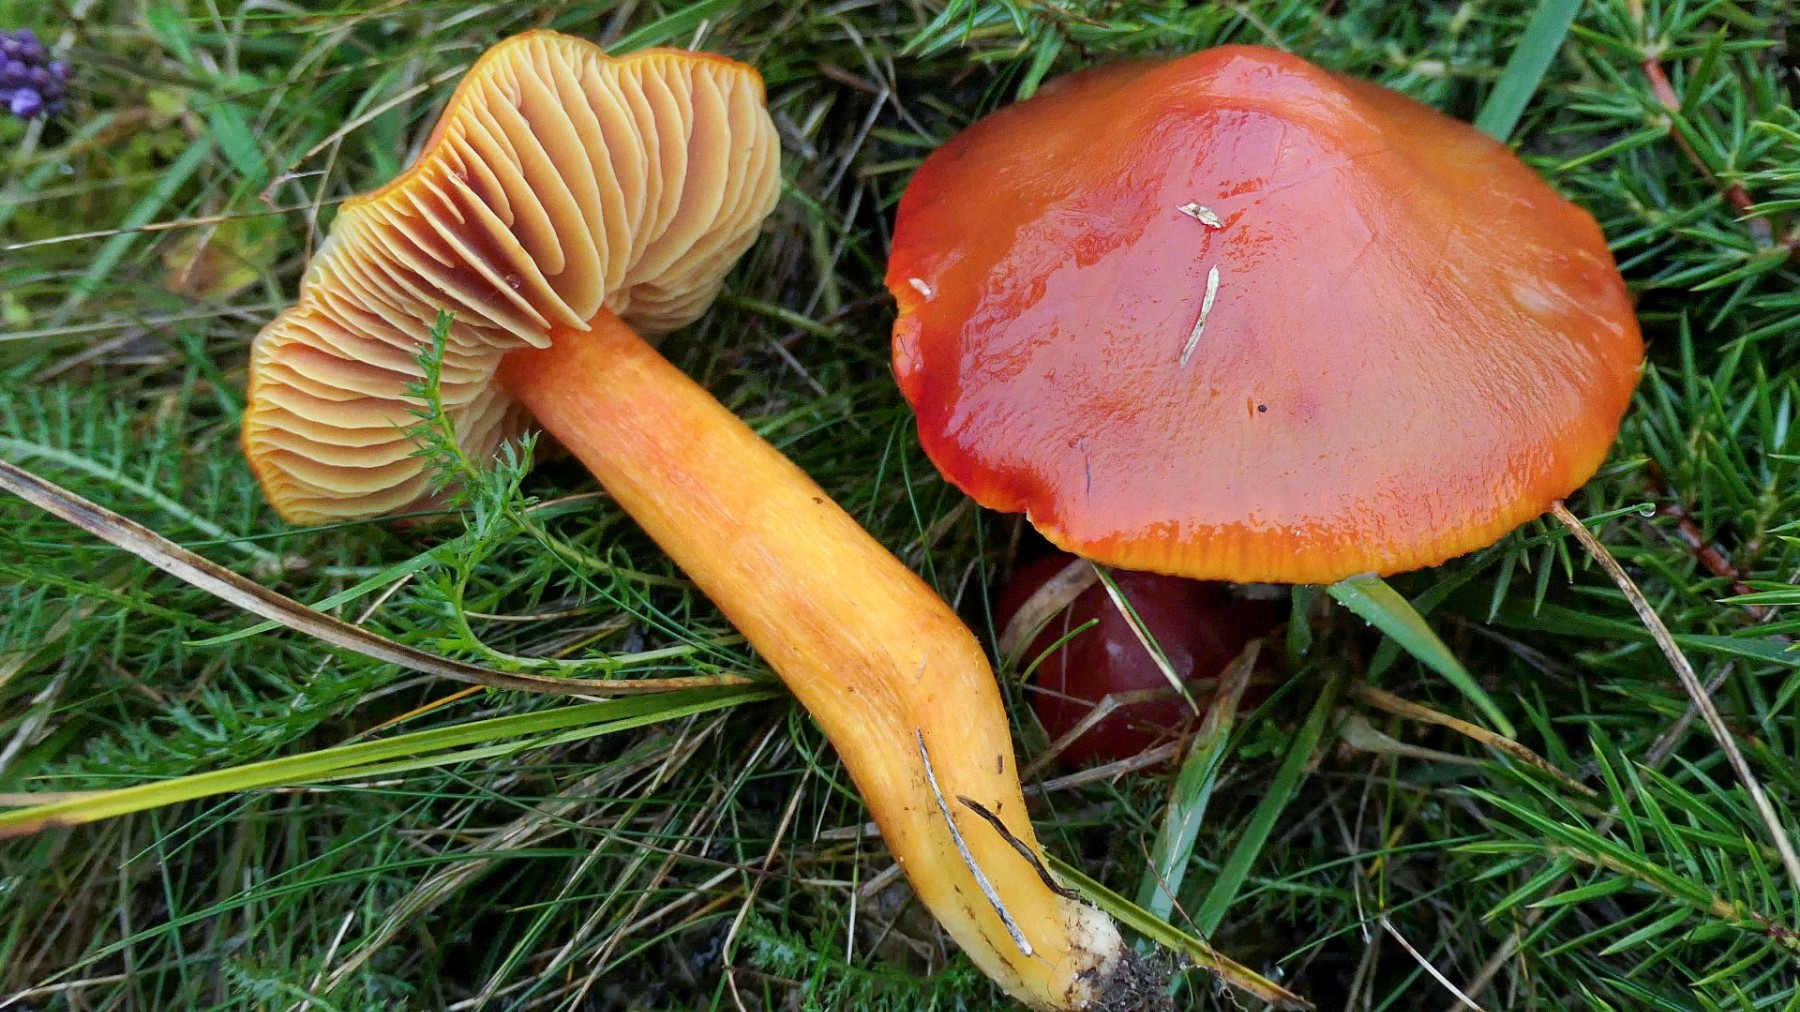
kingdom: Fungi
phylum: Basidiomycota
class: Agaricomycetes
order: Agaricales
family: Hygrophoraceae
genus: Hygrocybe
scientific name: Hygrocybe punicea
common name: skarlagen-vokshat
